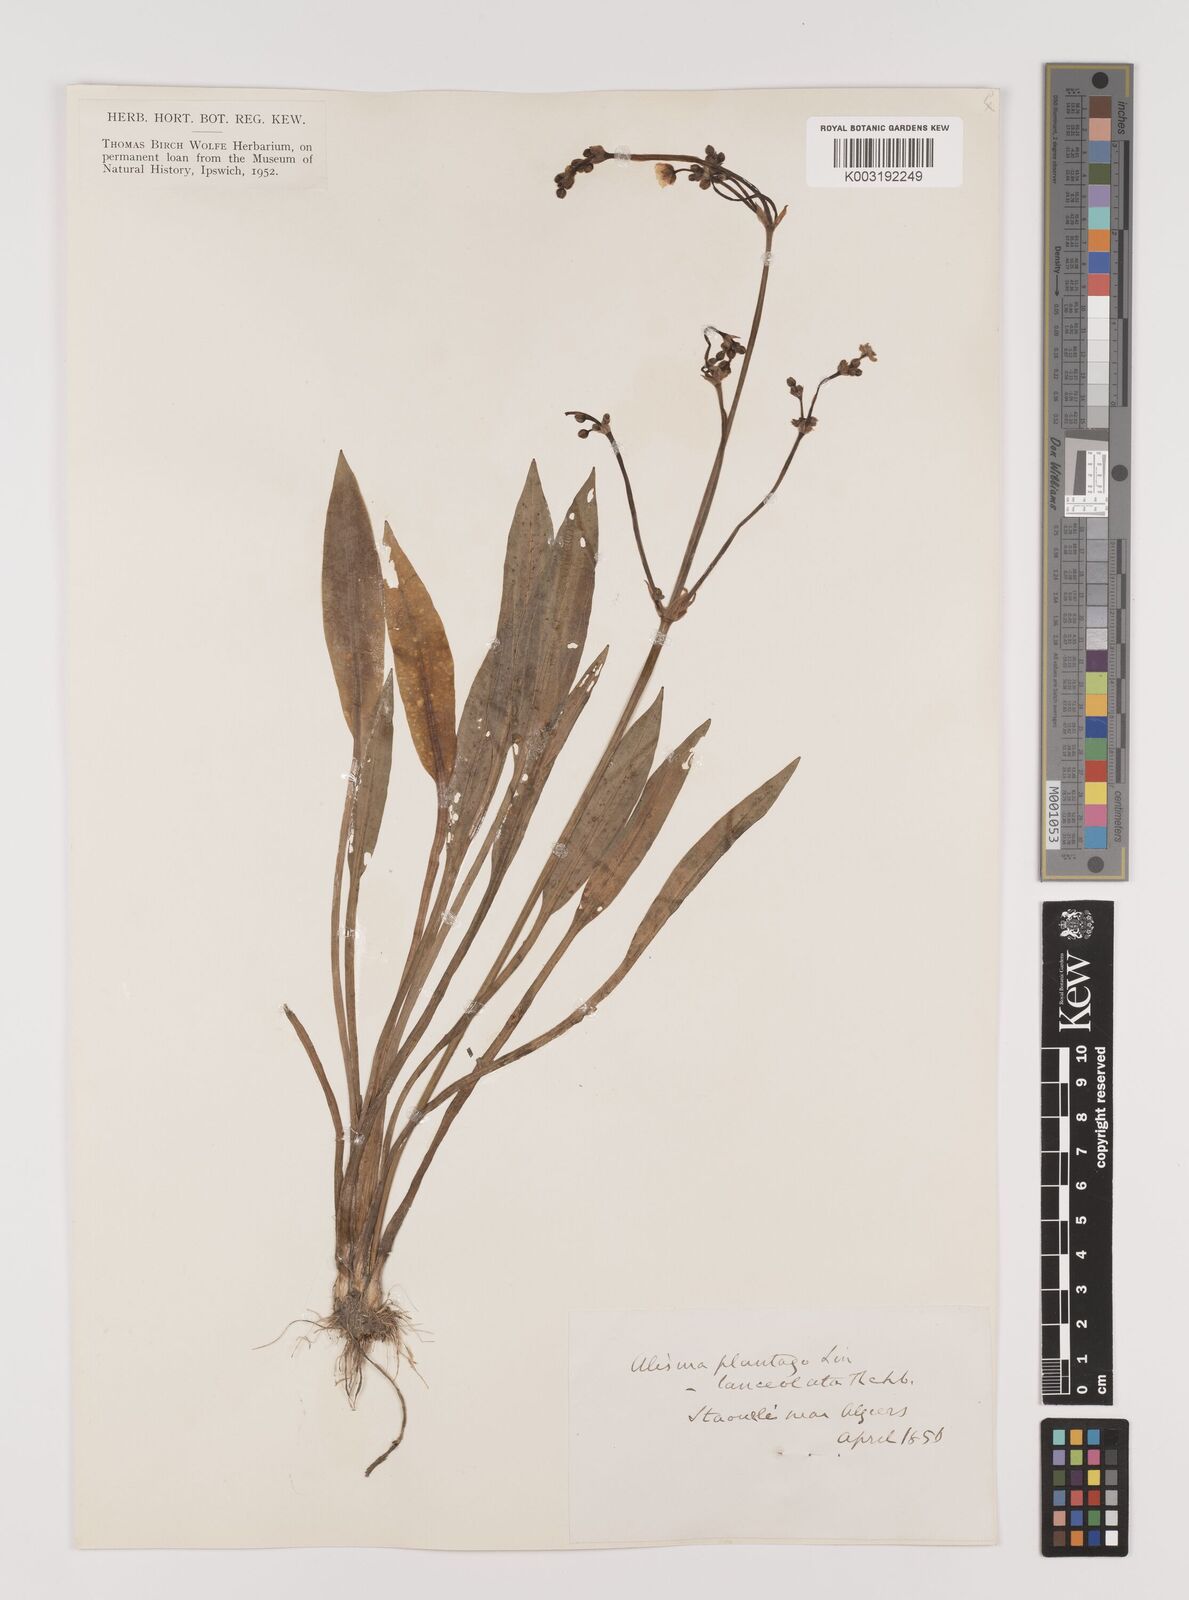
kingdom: Plantae
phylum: Tracheophyta
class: Liliopsida
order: Alismatales
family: Alismataceae
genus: Alisma
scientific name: Alisma plantago-aquatica
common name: Water-plantain
